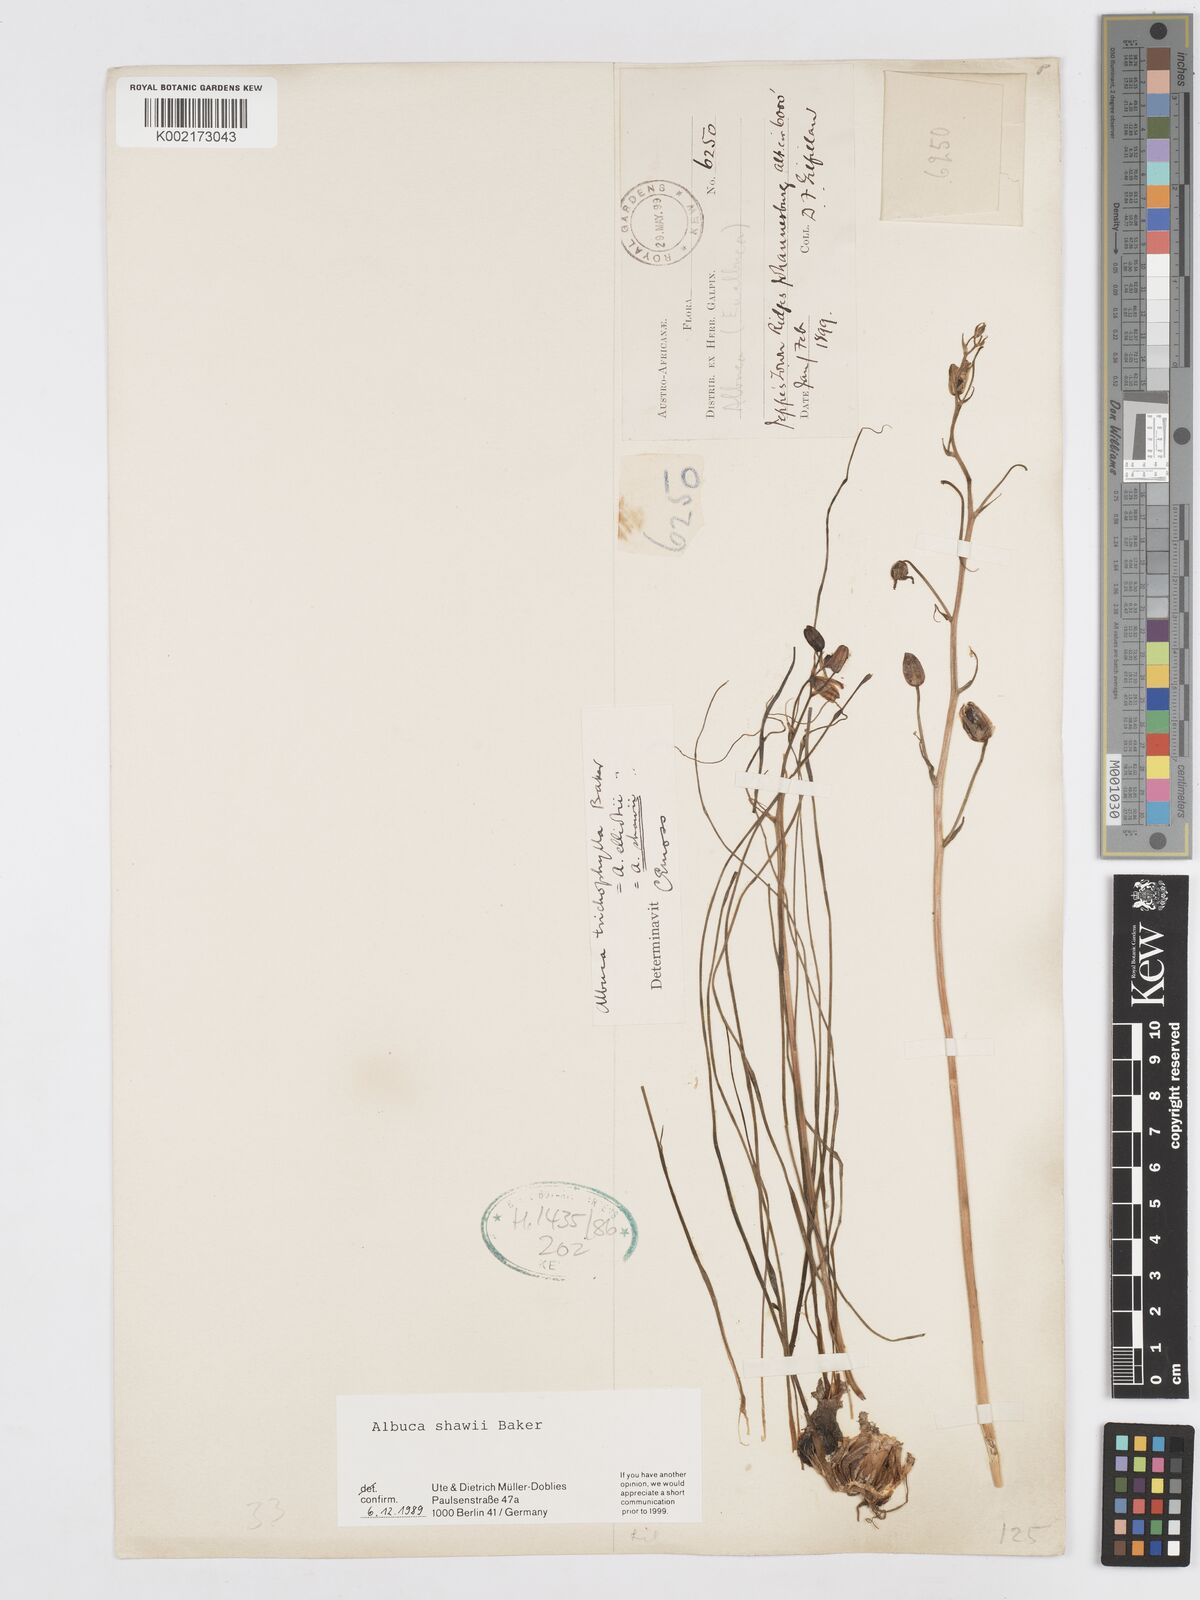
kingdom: Plantae
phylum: Tracheophyta
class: Liliopsida
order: Asparagales
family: Asparagaceae
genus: Albuca
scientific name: Albuca shawii
